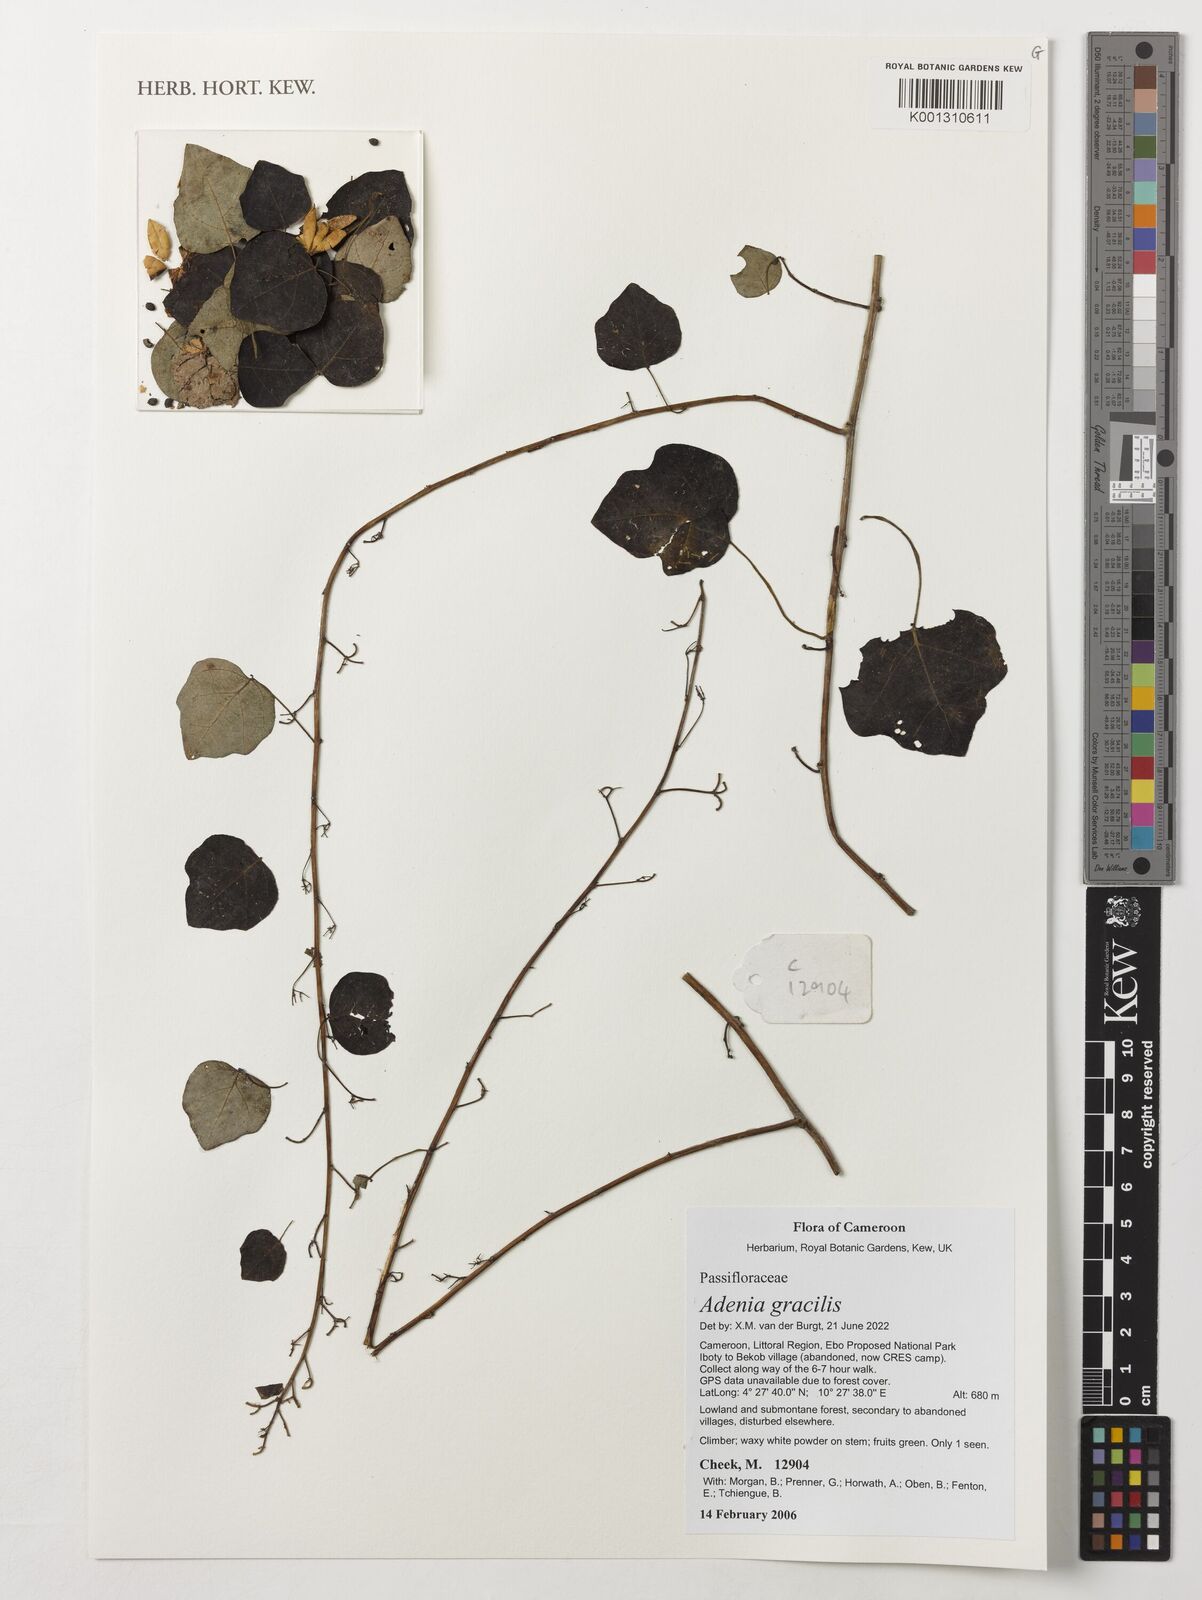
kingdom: Plantae
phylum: Tracheophyta
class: Magnoliopsida
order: Malpighiales
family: Passifloraceae
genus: Adenia
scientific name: Adenia cissampeloides
